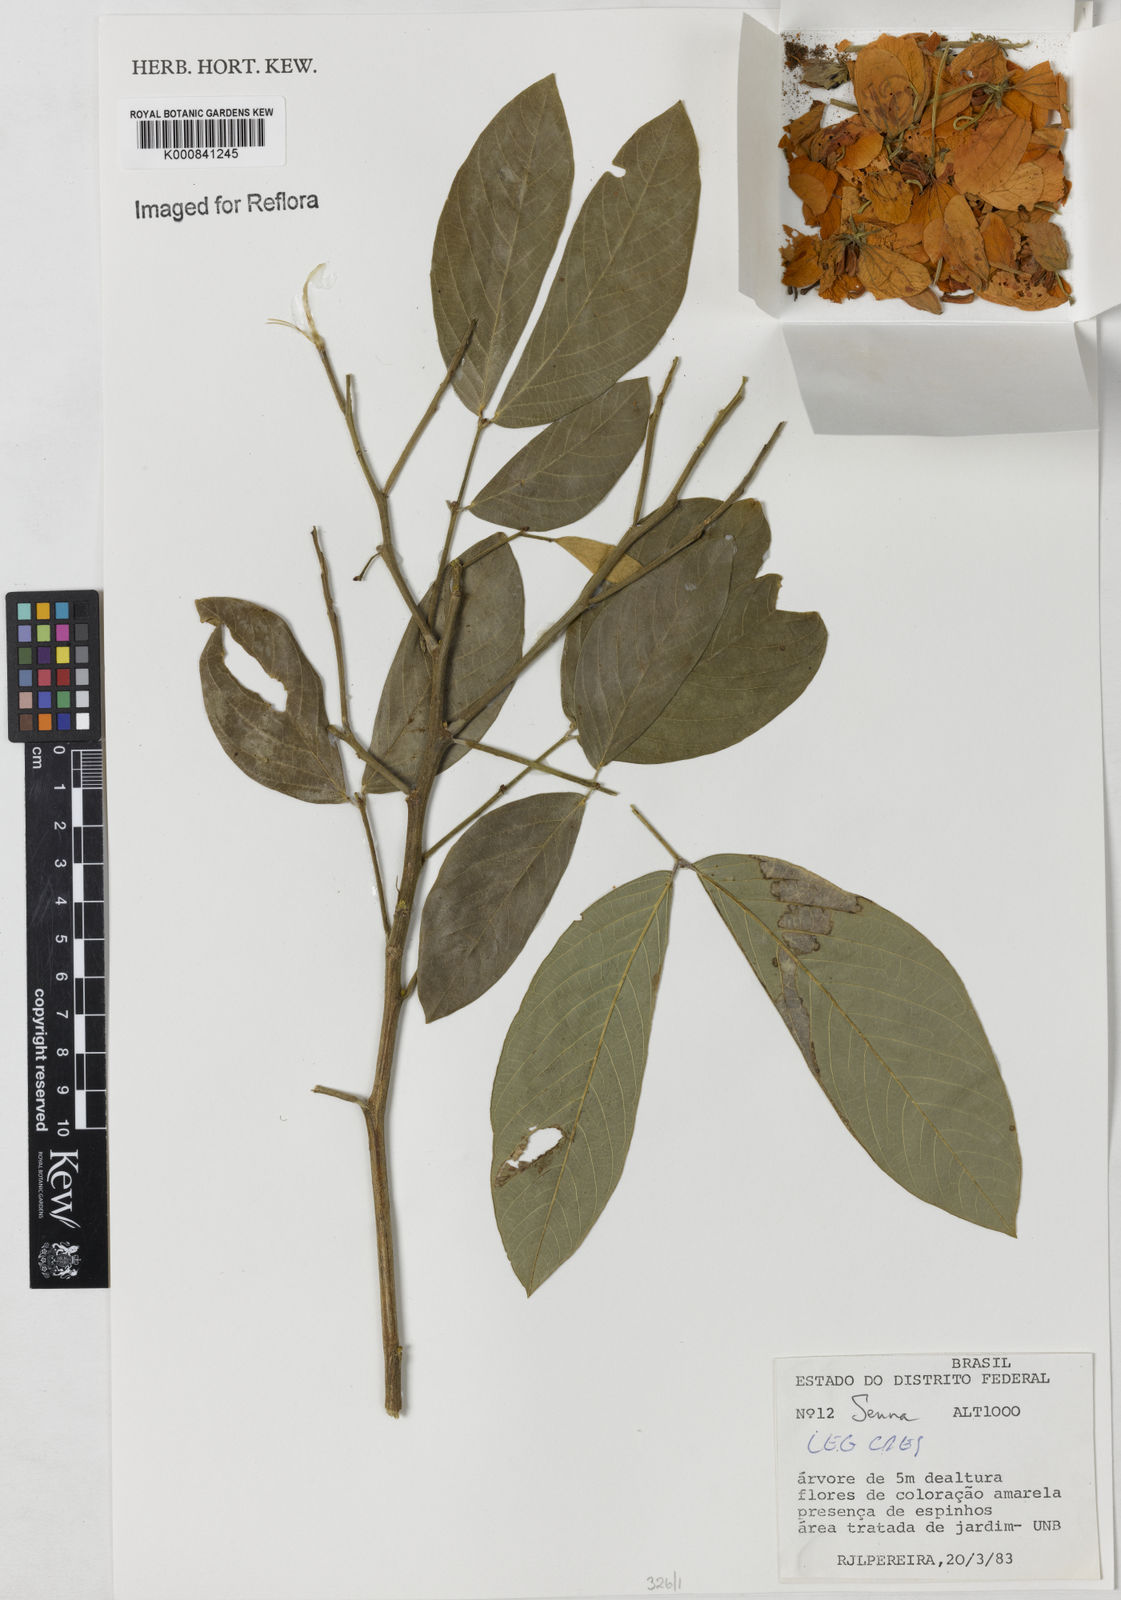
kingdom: Plantae
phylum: Tracheophyta
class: Magnoliopsida
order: Fabales
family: Fabaceae
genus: Senna
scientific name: Senna
